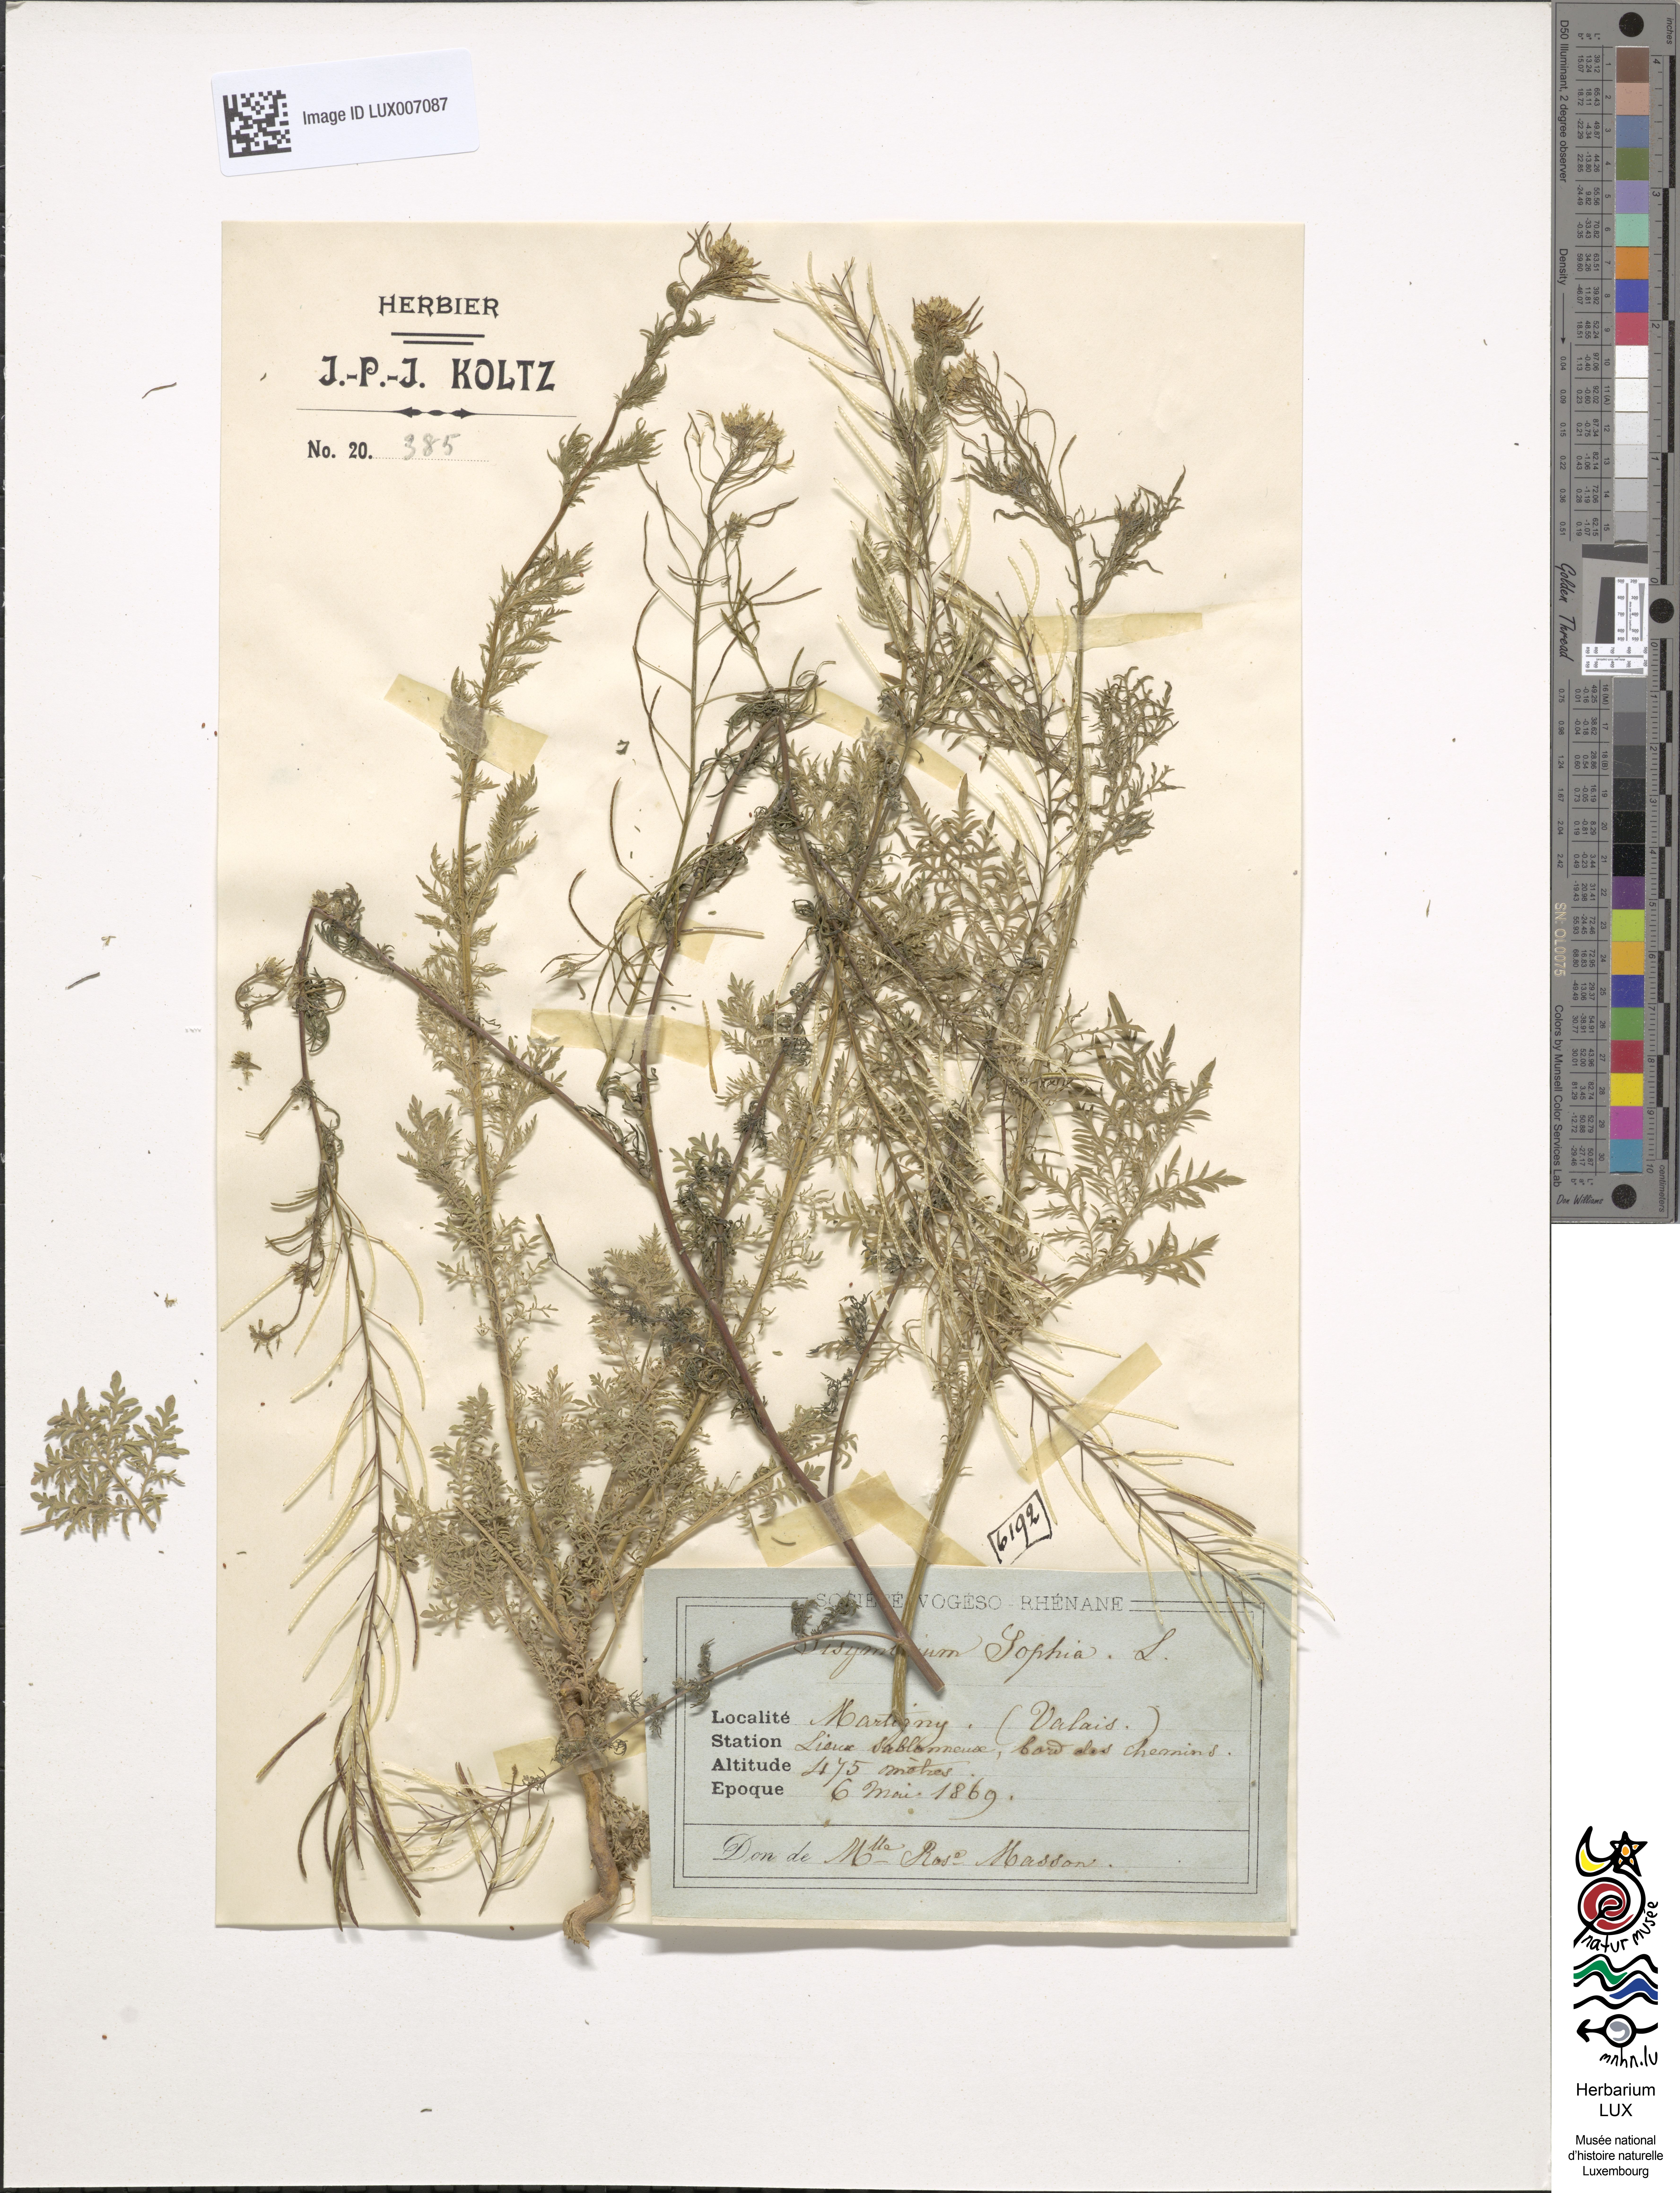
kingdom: Plantae
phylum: Tracheophyta
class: Magnoliopsida
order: Brassicales
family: Brassicaceae
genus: Descurainia
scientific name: Descurainia sophia
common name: Flixweed
